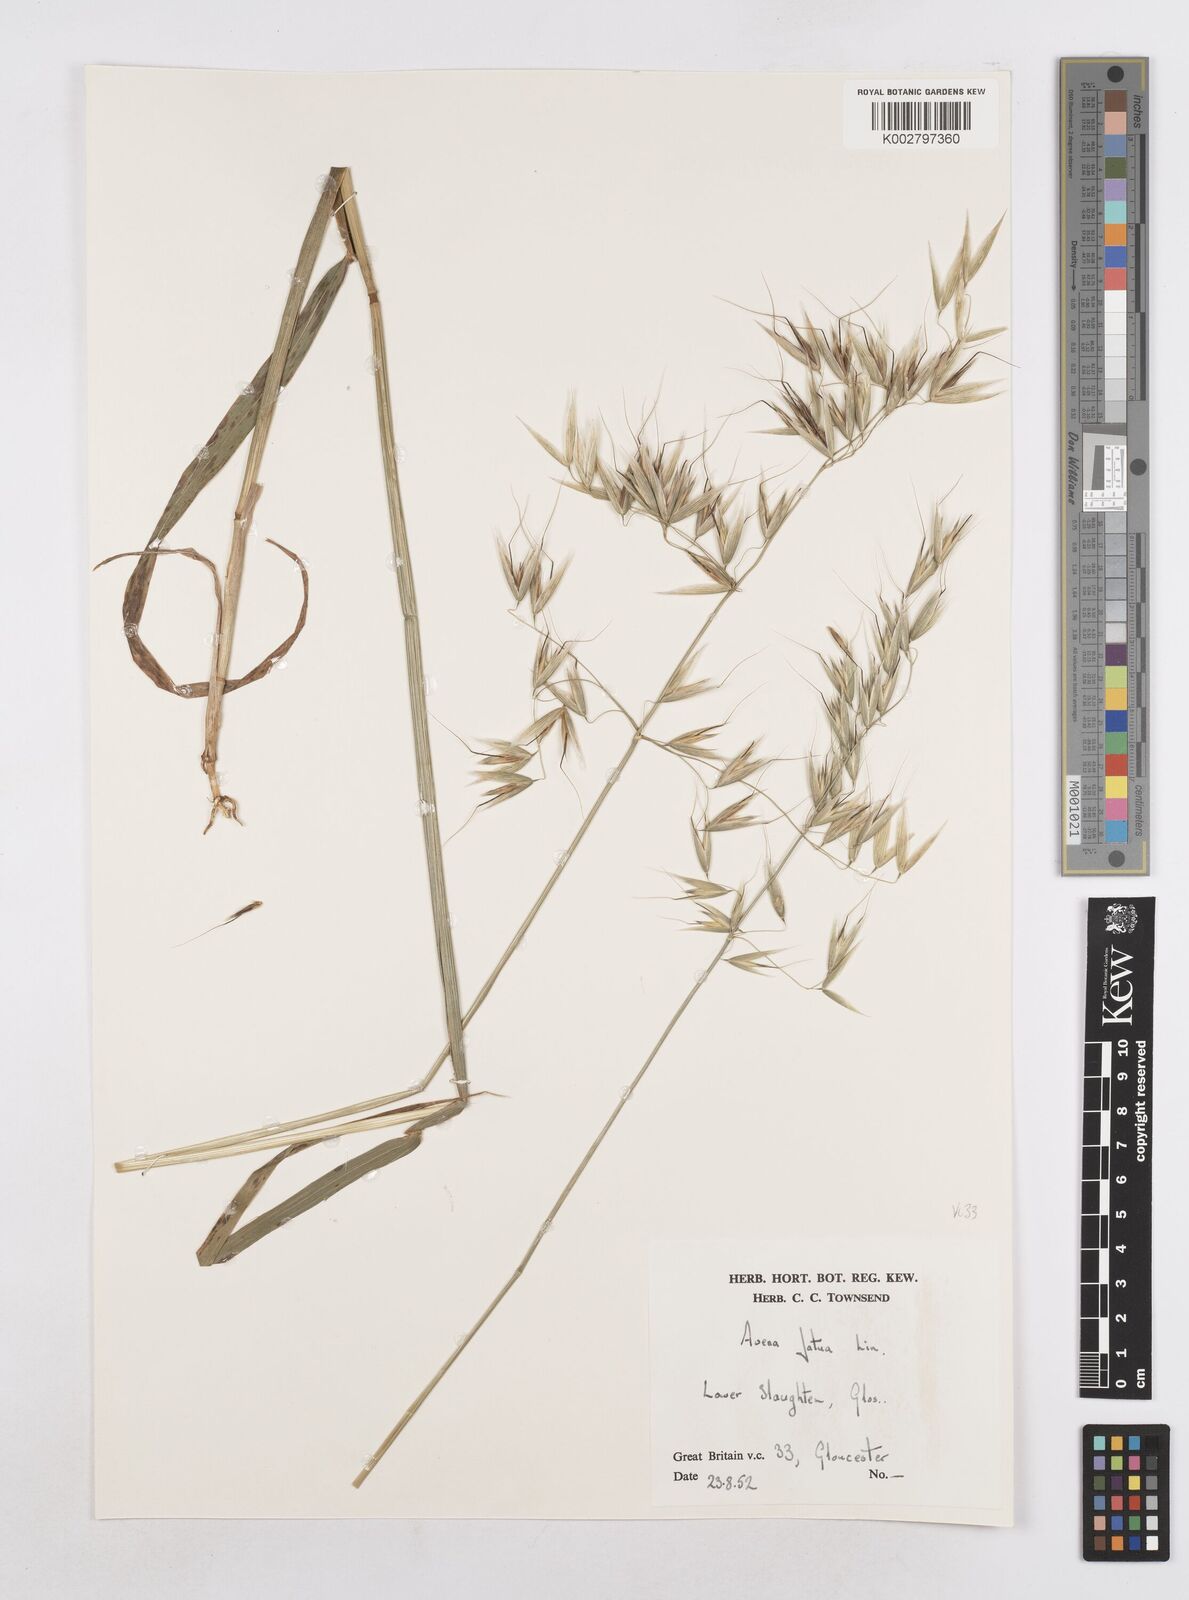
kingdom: Plantae
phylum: Tracheophyta
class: Liliopsida
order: Poales
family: Poaceae
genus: Avena
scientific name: Avena fatua
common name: Wild oat
